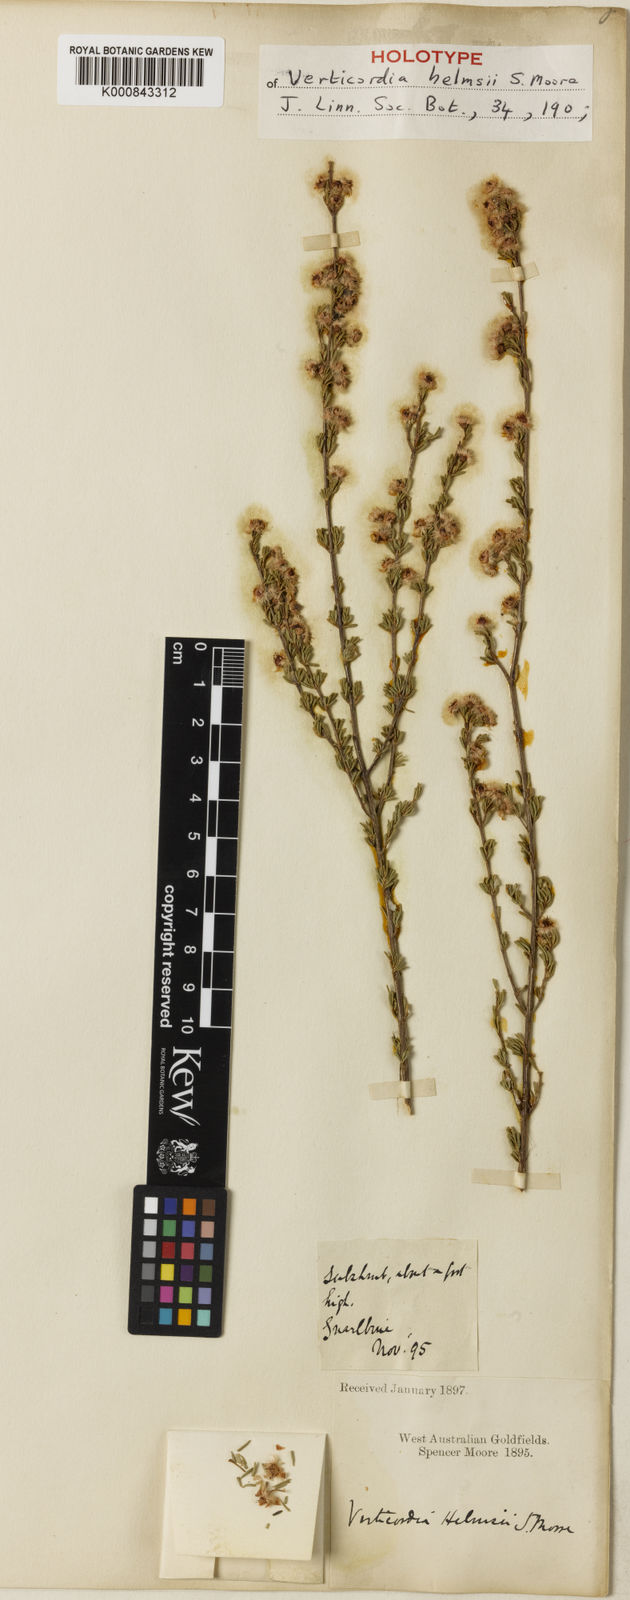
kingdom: Plantae
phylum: Tracheophyta
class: Magnoliopsida
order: Myrtales
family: Myrtaceae
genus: Verticordia
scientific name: Verticordia helmsii
